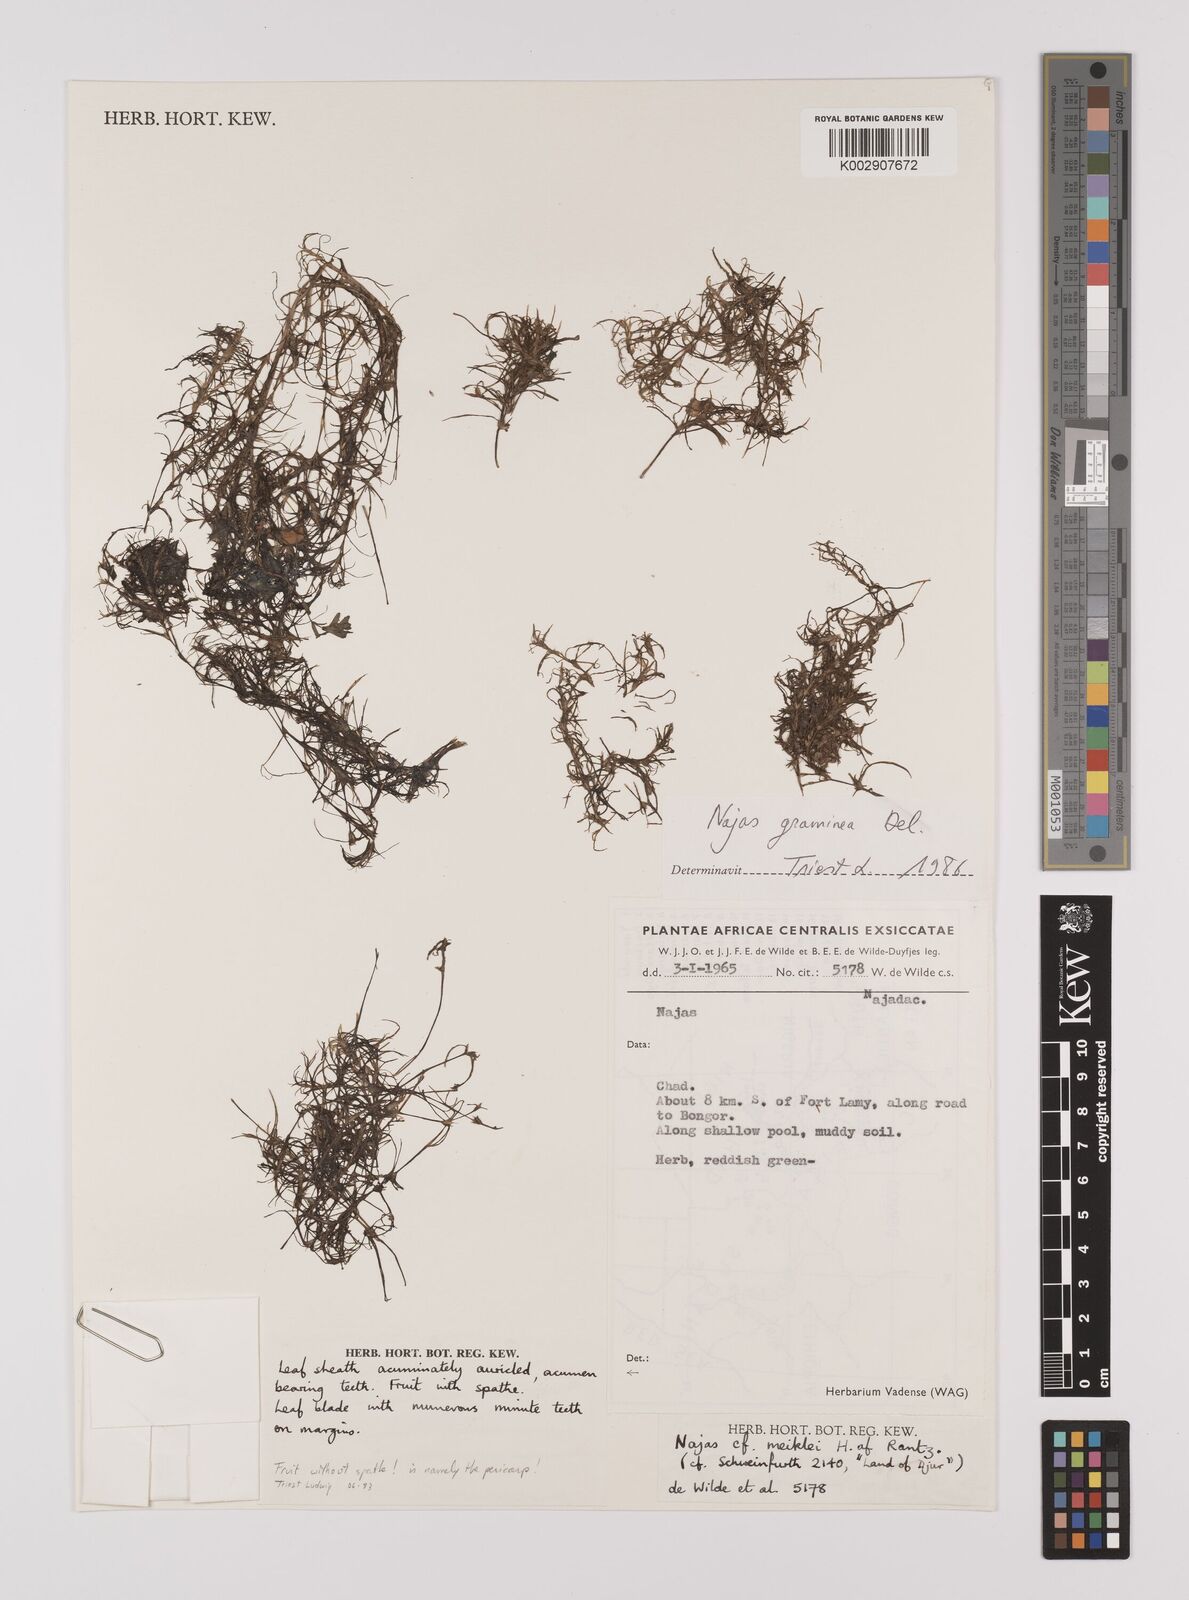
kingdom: Plantae
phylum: Tracheophyta
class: Liliopsida
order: Alismatales
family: Hydrocharitaceae
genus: Najas
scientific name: Najas graminea
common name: Ricefield waternymph
